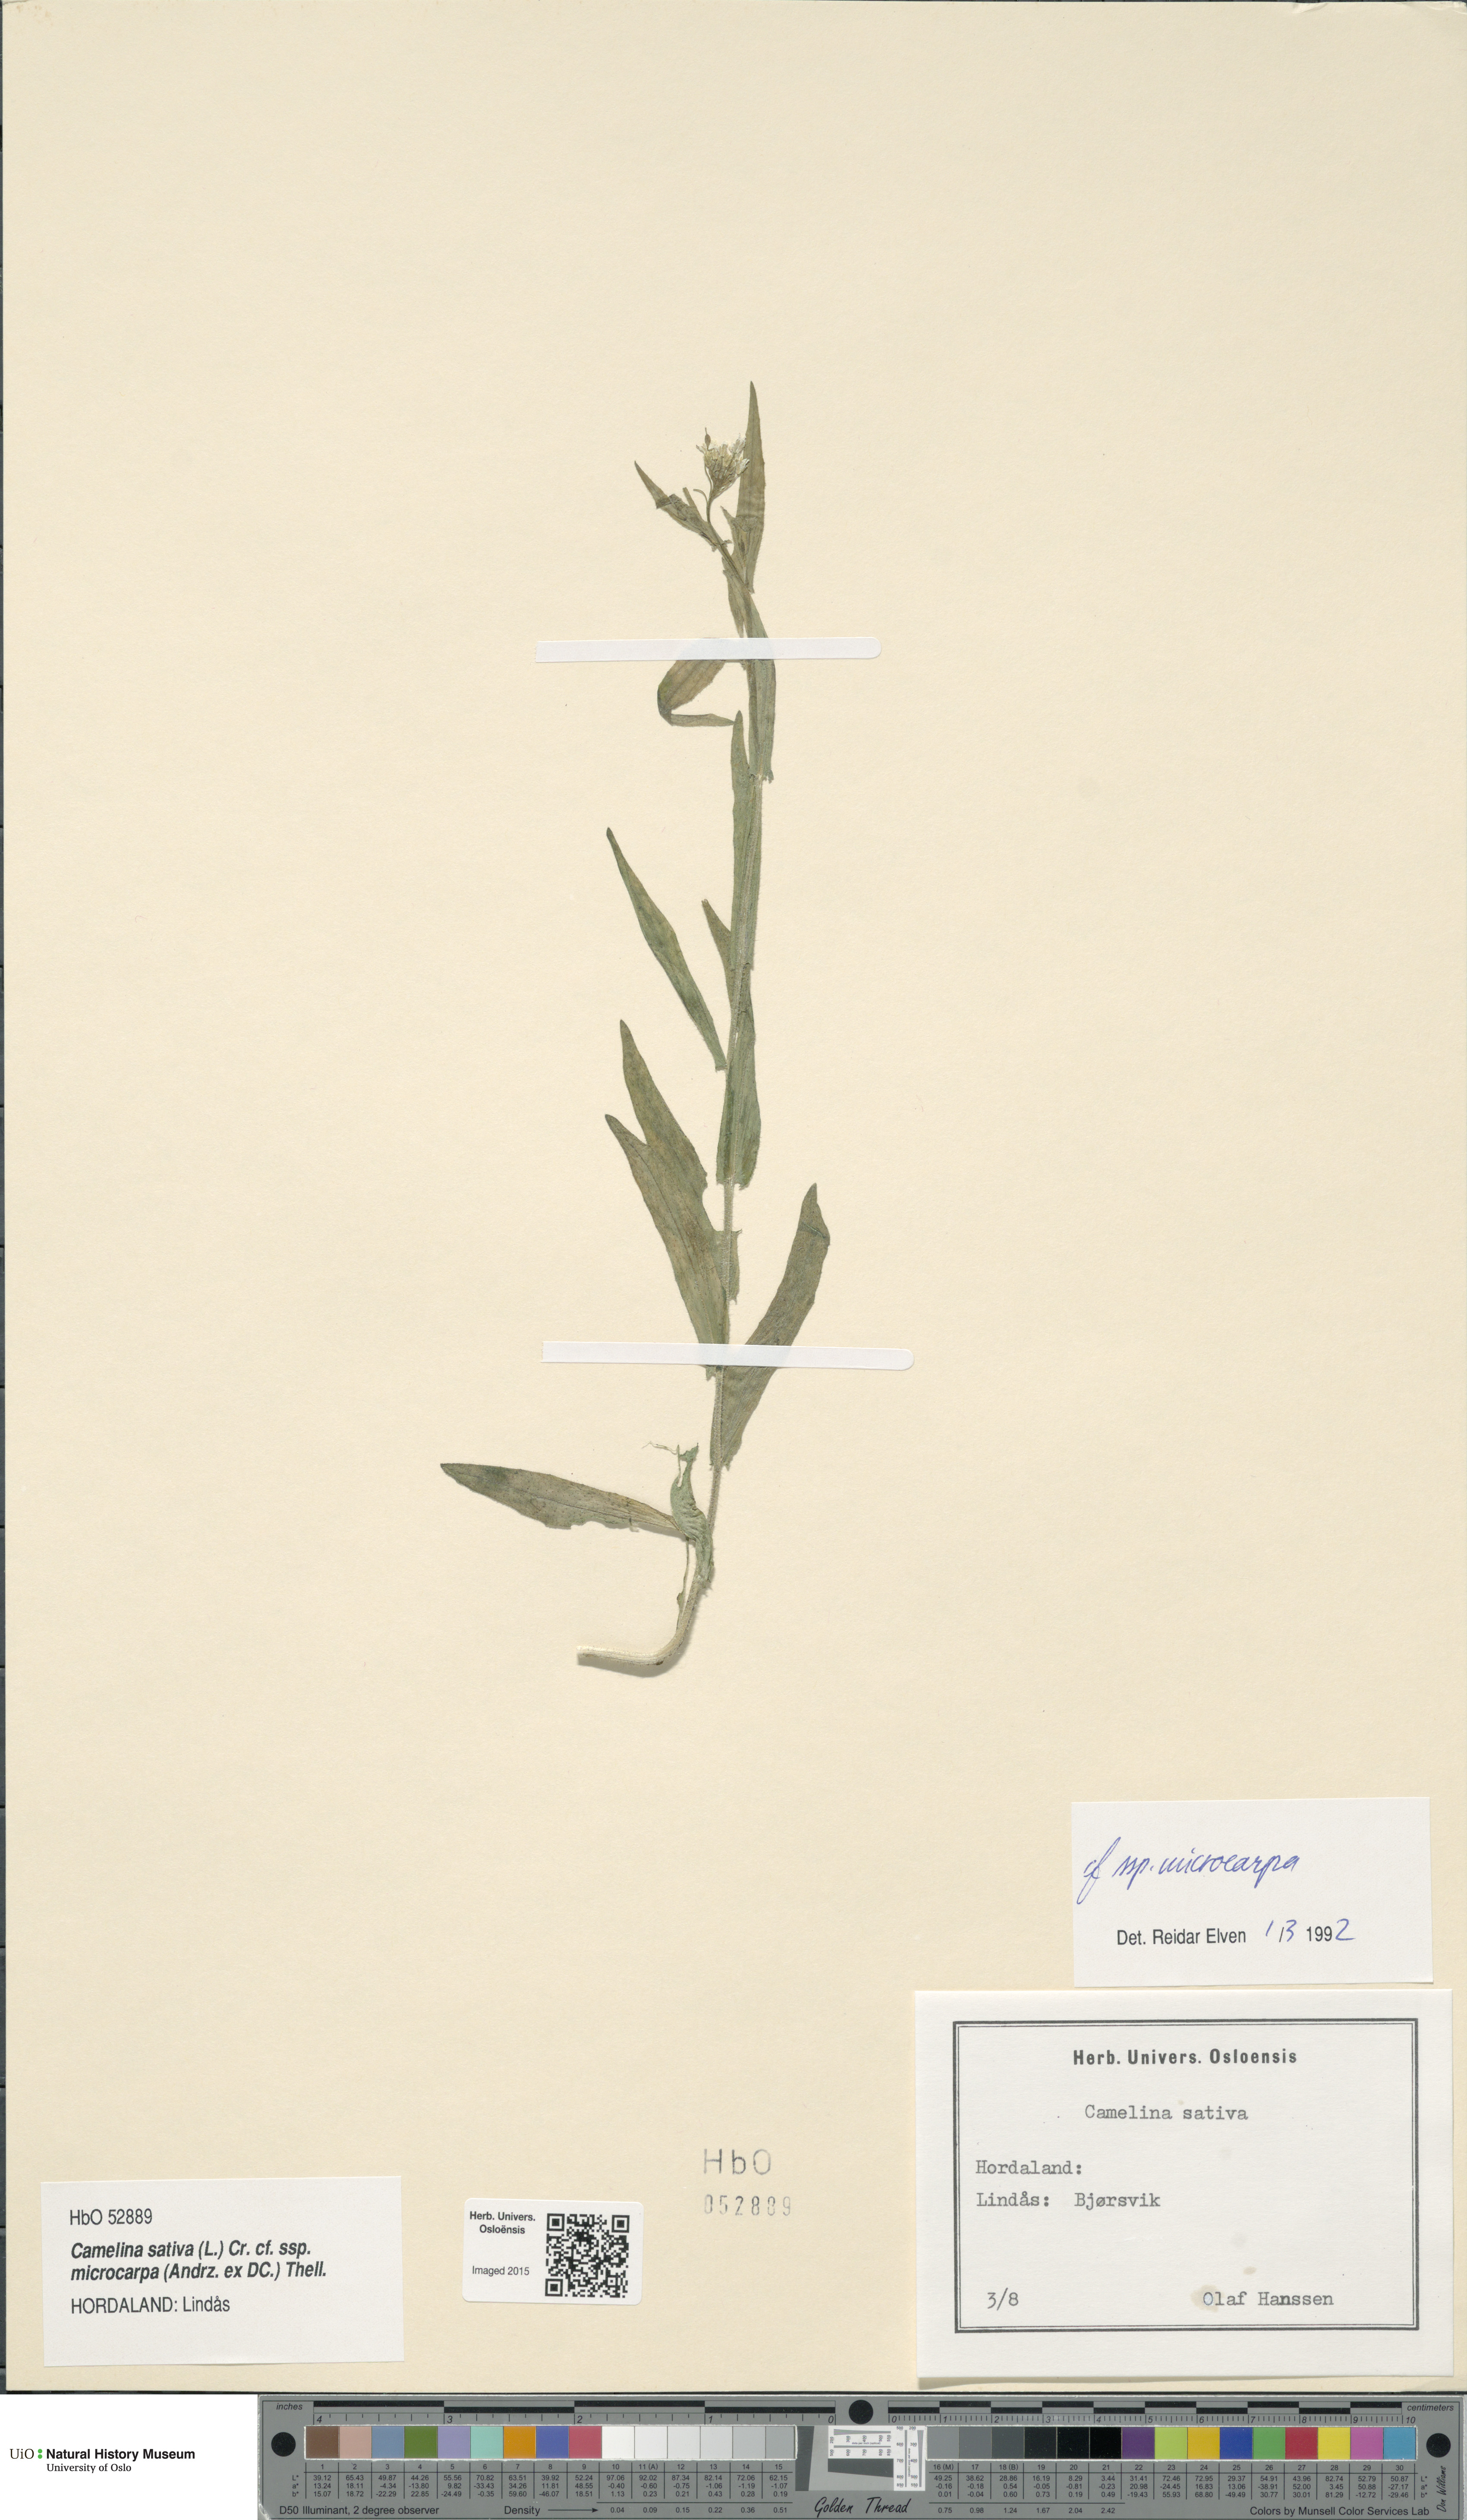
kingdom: Plantae
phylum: Tracheophyta
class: Magnoliopsida
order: Brassicales
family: Brassicaceae
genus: Camelina
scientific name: Camelina sativa
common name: Gold-of-pleasure
